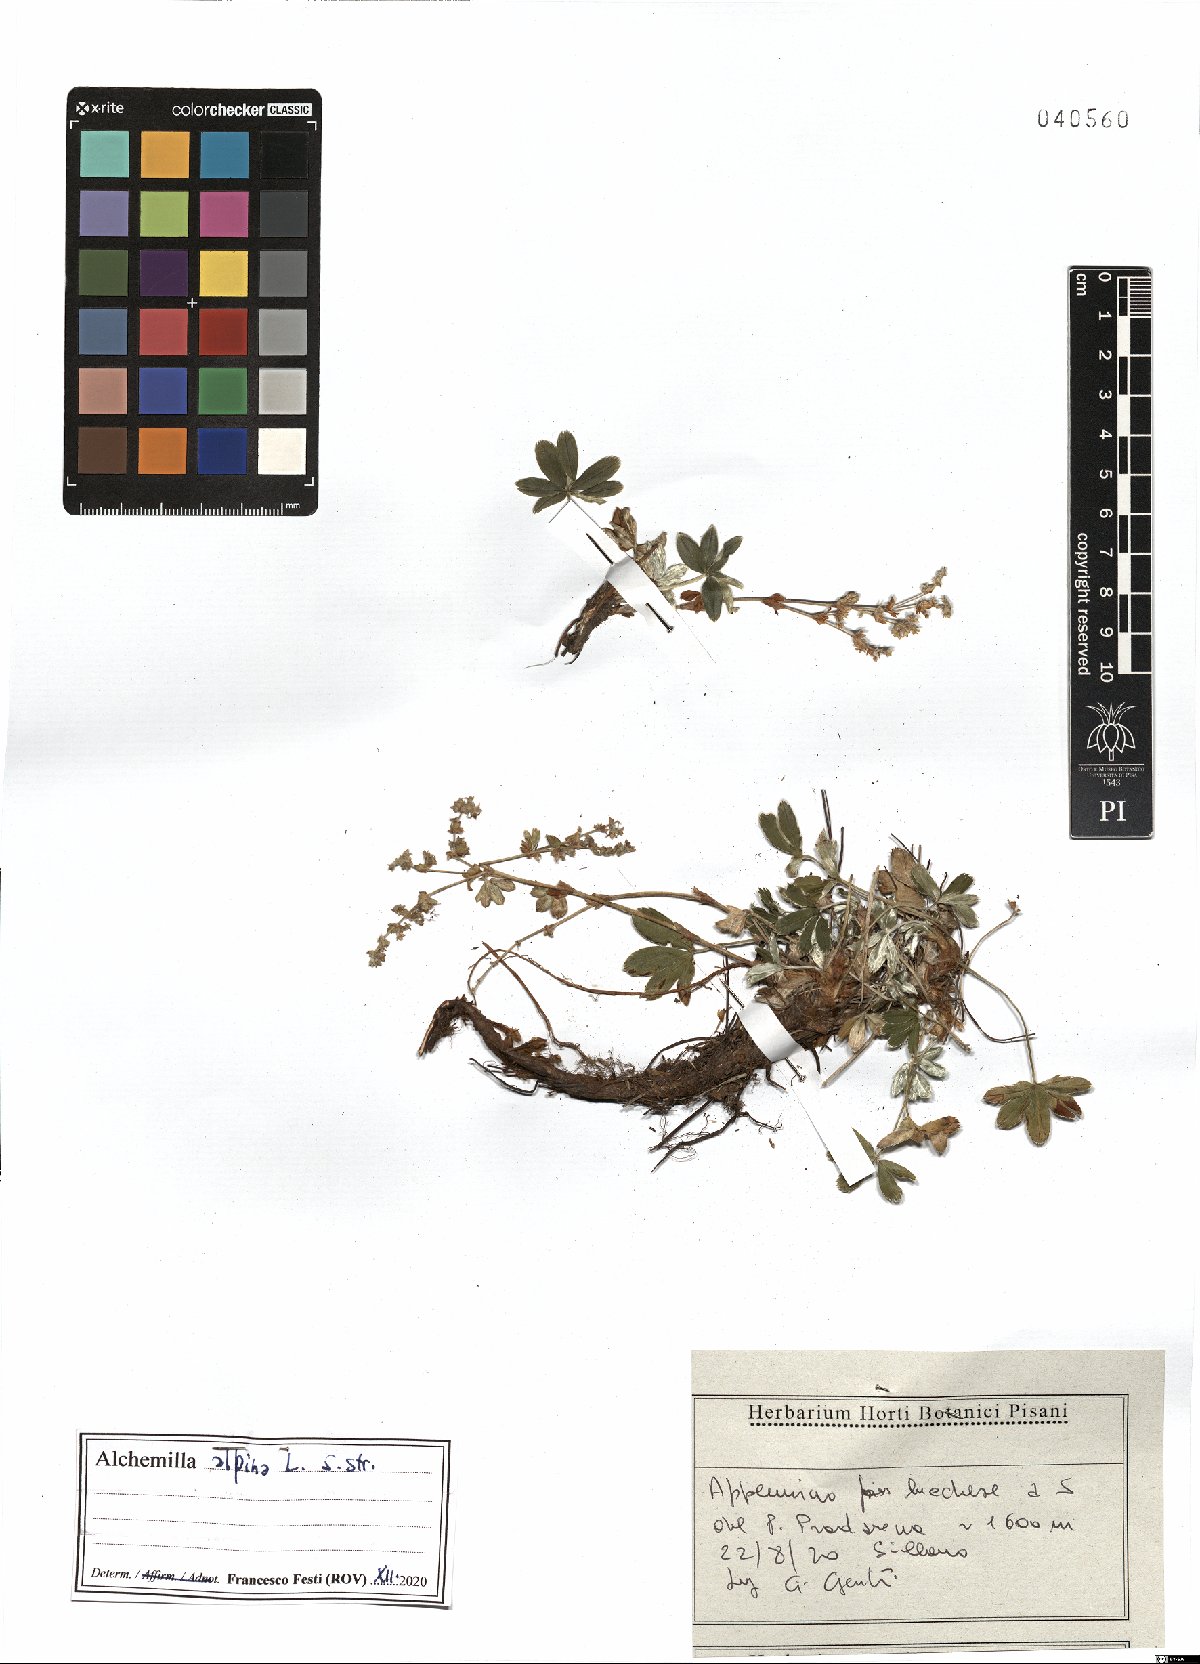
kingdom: Plantae
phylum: Tracheophyta
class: Magnoliopsida
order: Rosales
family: Rosaceae
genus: Alchemilla
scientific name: Alchemilla alpina
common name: Alpine lady's-mantle
